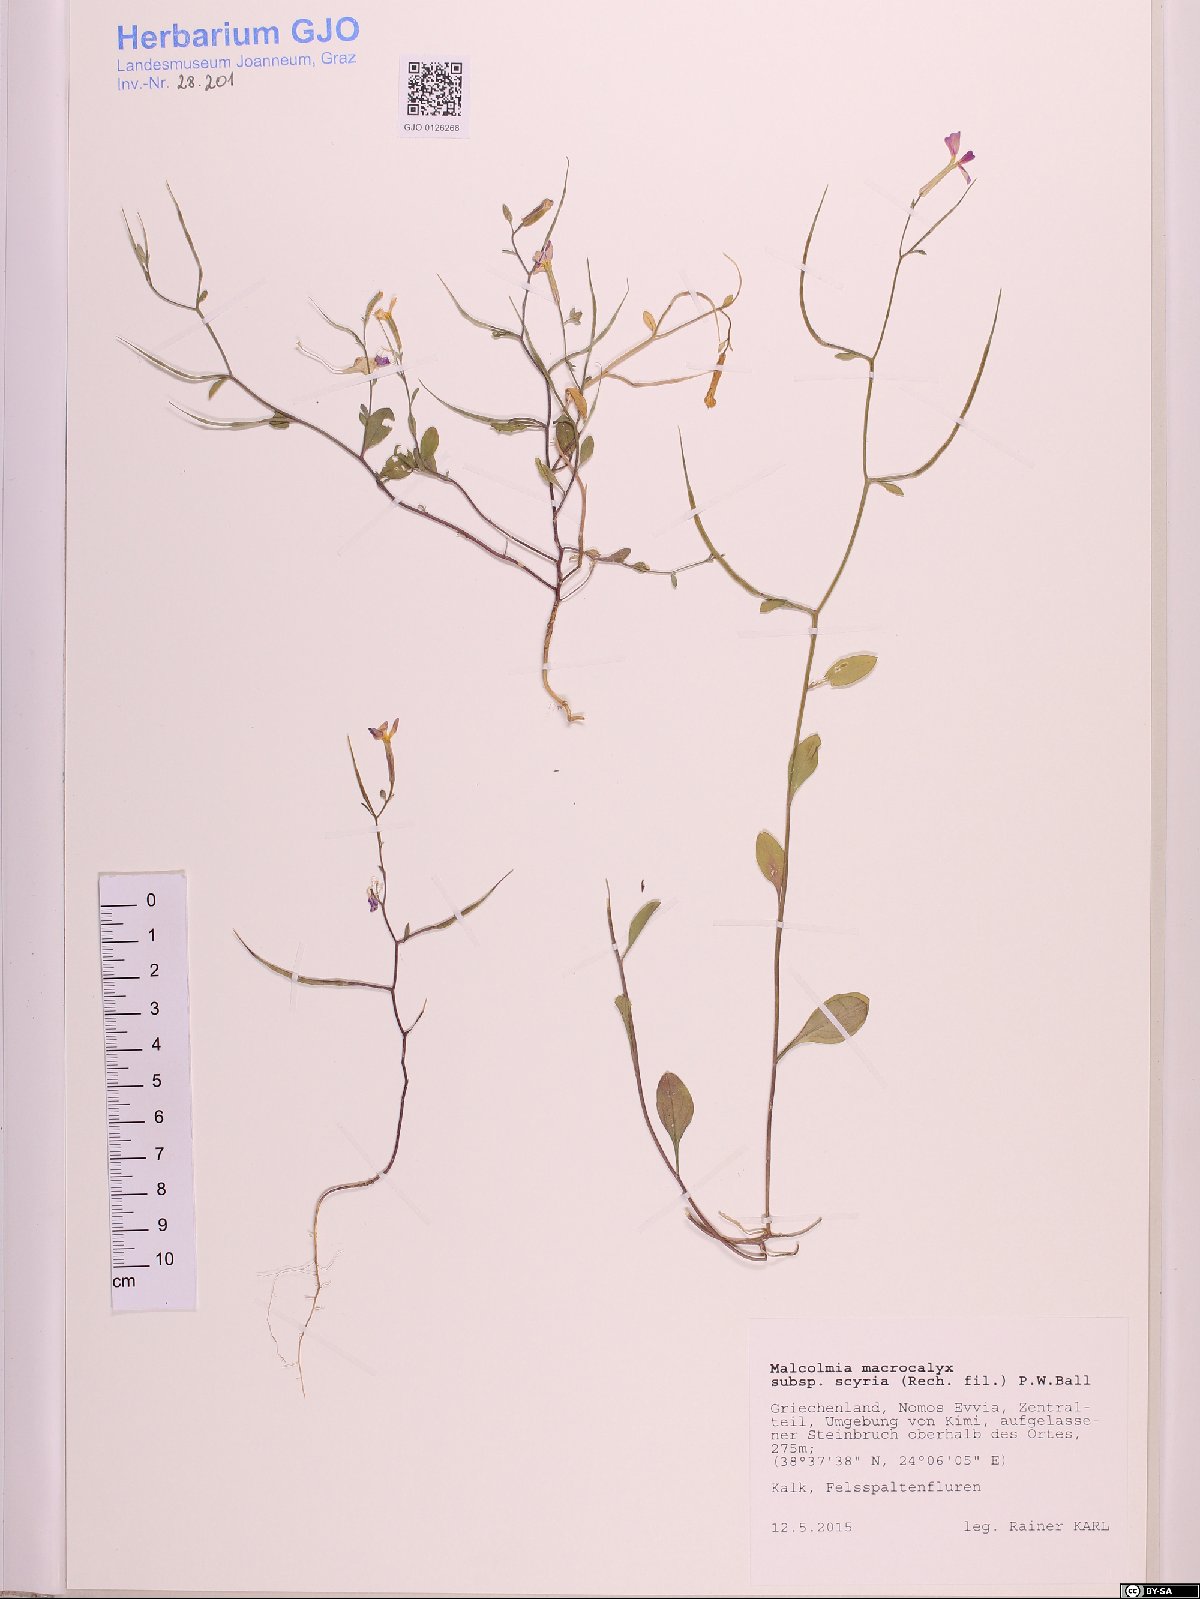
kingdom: Plantae
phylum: Tracheophyta
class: Magnoliopsida
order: Brassicales
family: Brassicaceae
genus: Malcolmia
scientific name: Malcolmia macrocalyx
